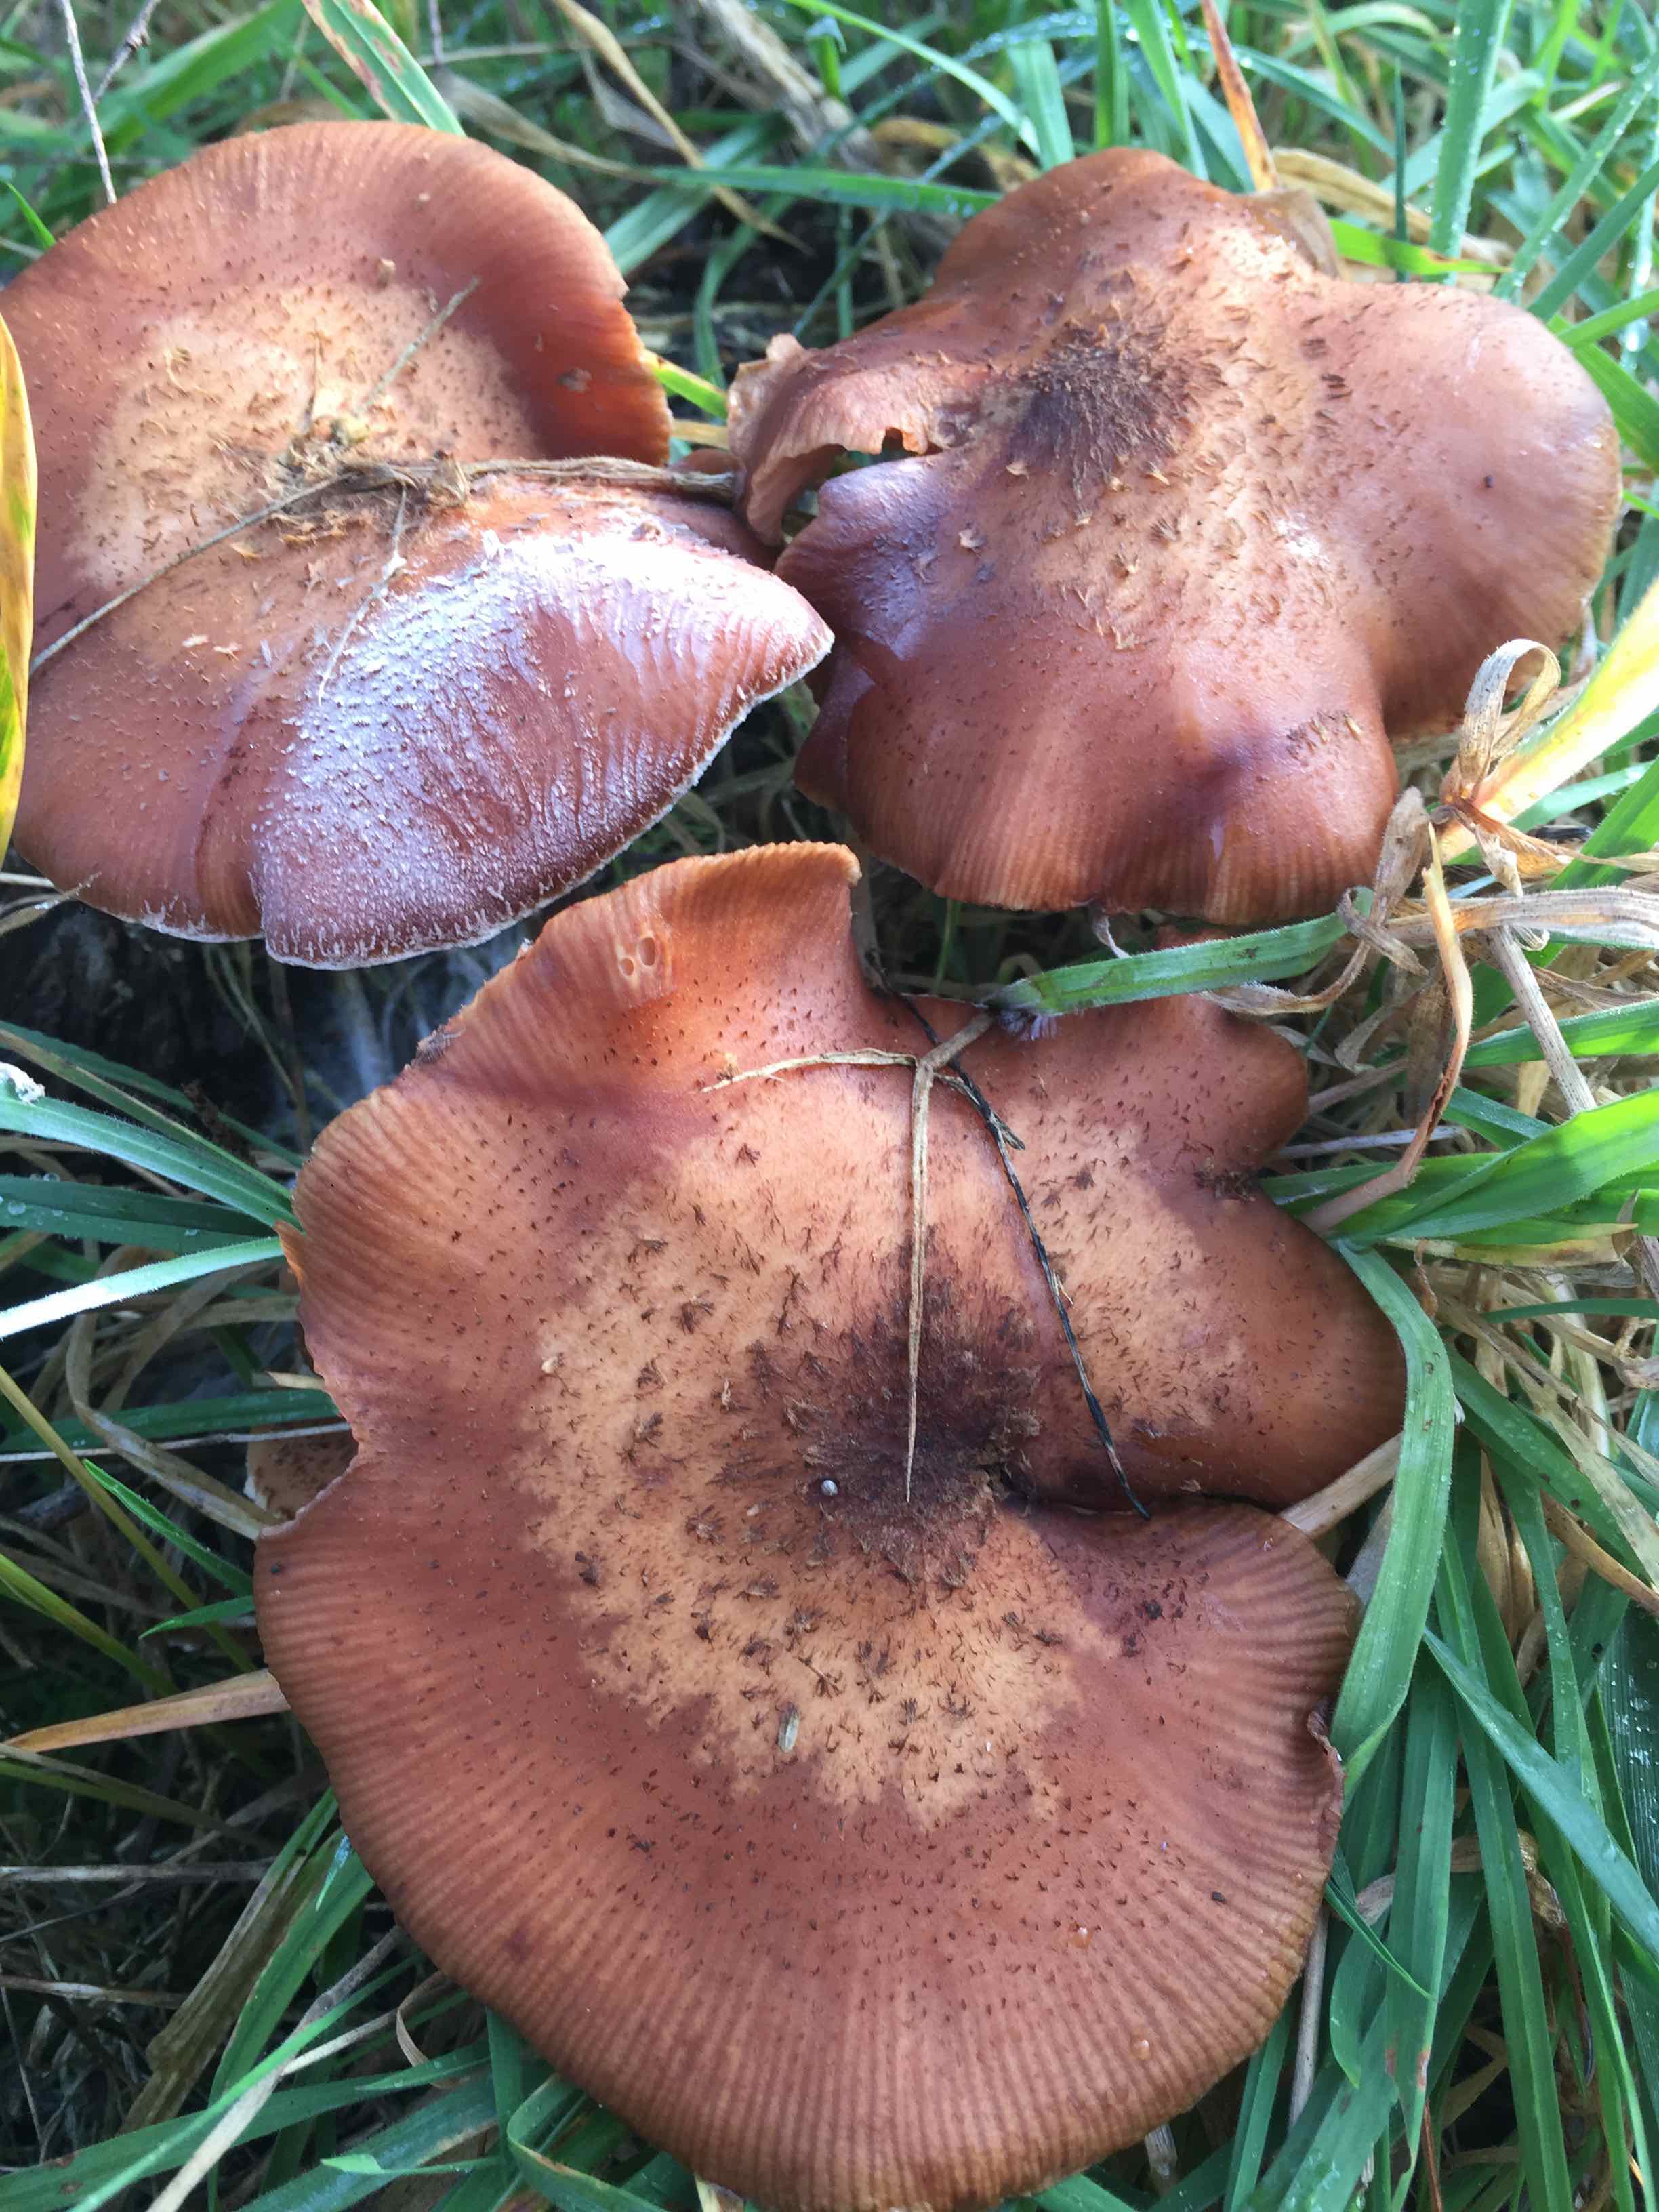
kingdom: Fungi
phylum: Basidiomycota
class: Agaricomycetes
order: Agaricales
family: Physalacriaceae
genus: Armillaria
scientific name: Armillaria ostoyae
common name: mørk honningsvamp
